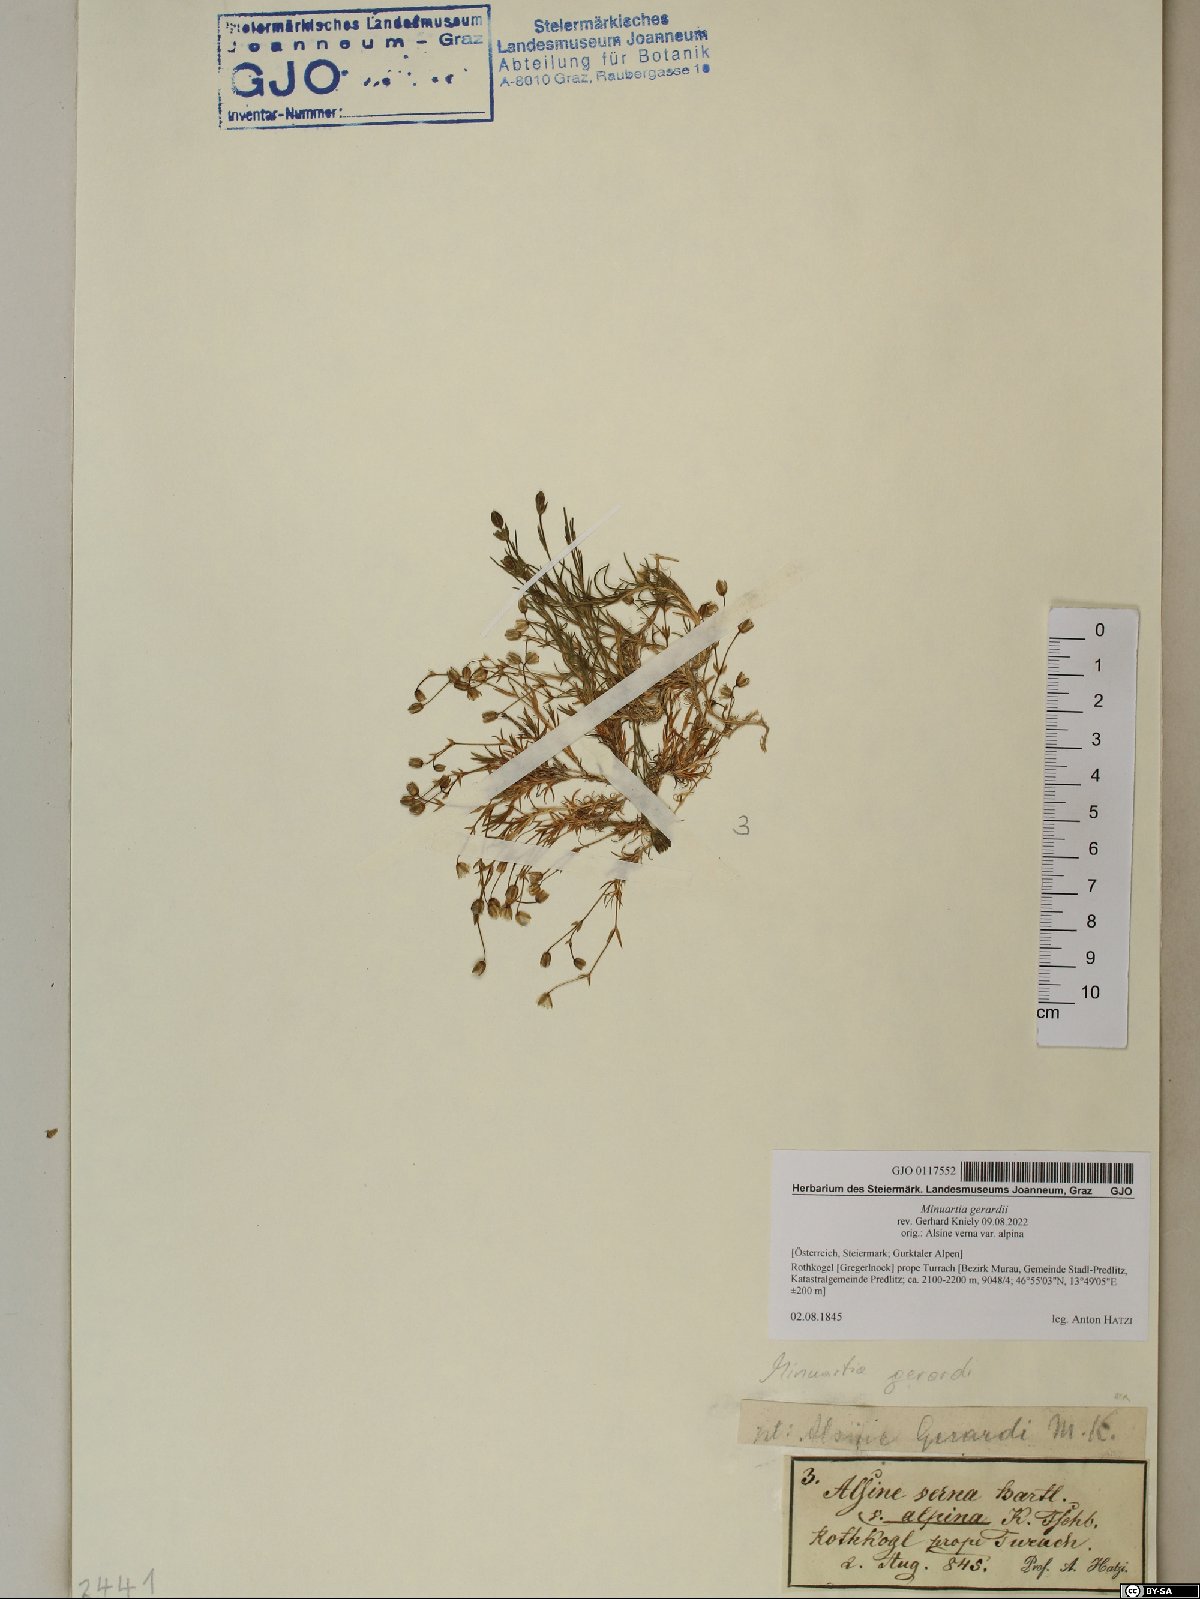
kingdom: Plantae
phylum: Tracheophyta
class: Magnoliopsida
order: Caryophyllales
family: Caryophyllaceae
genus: Sabulina
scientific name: Sabulina verna
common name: Spring sandwort
